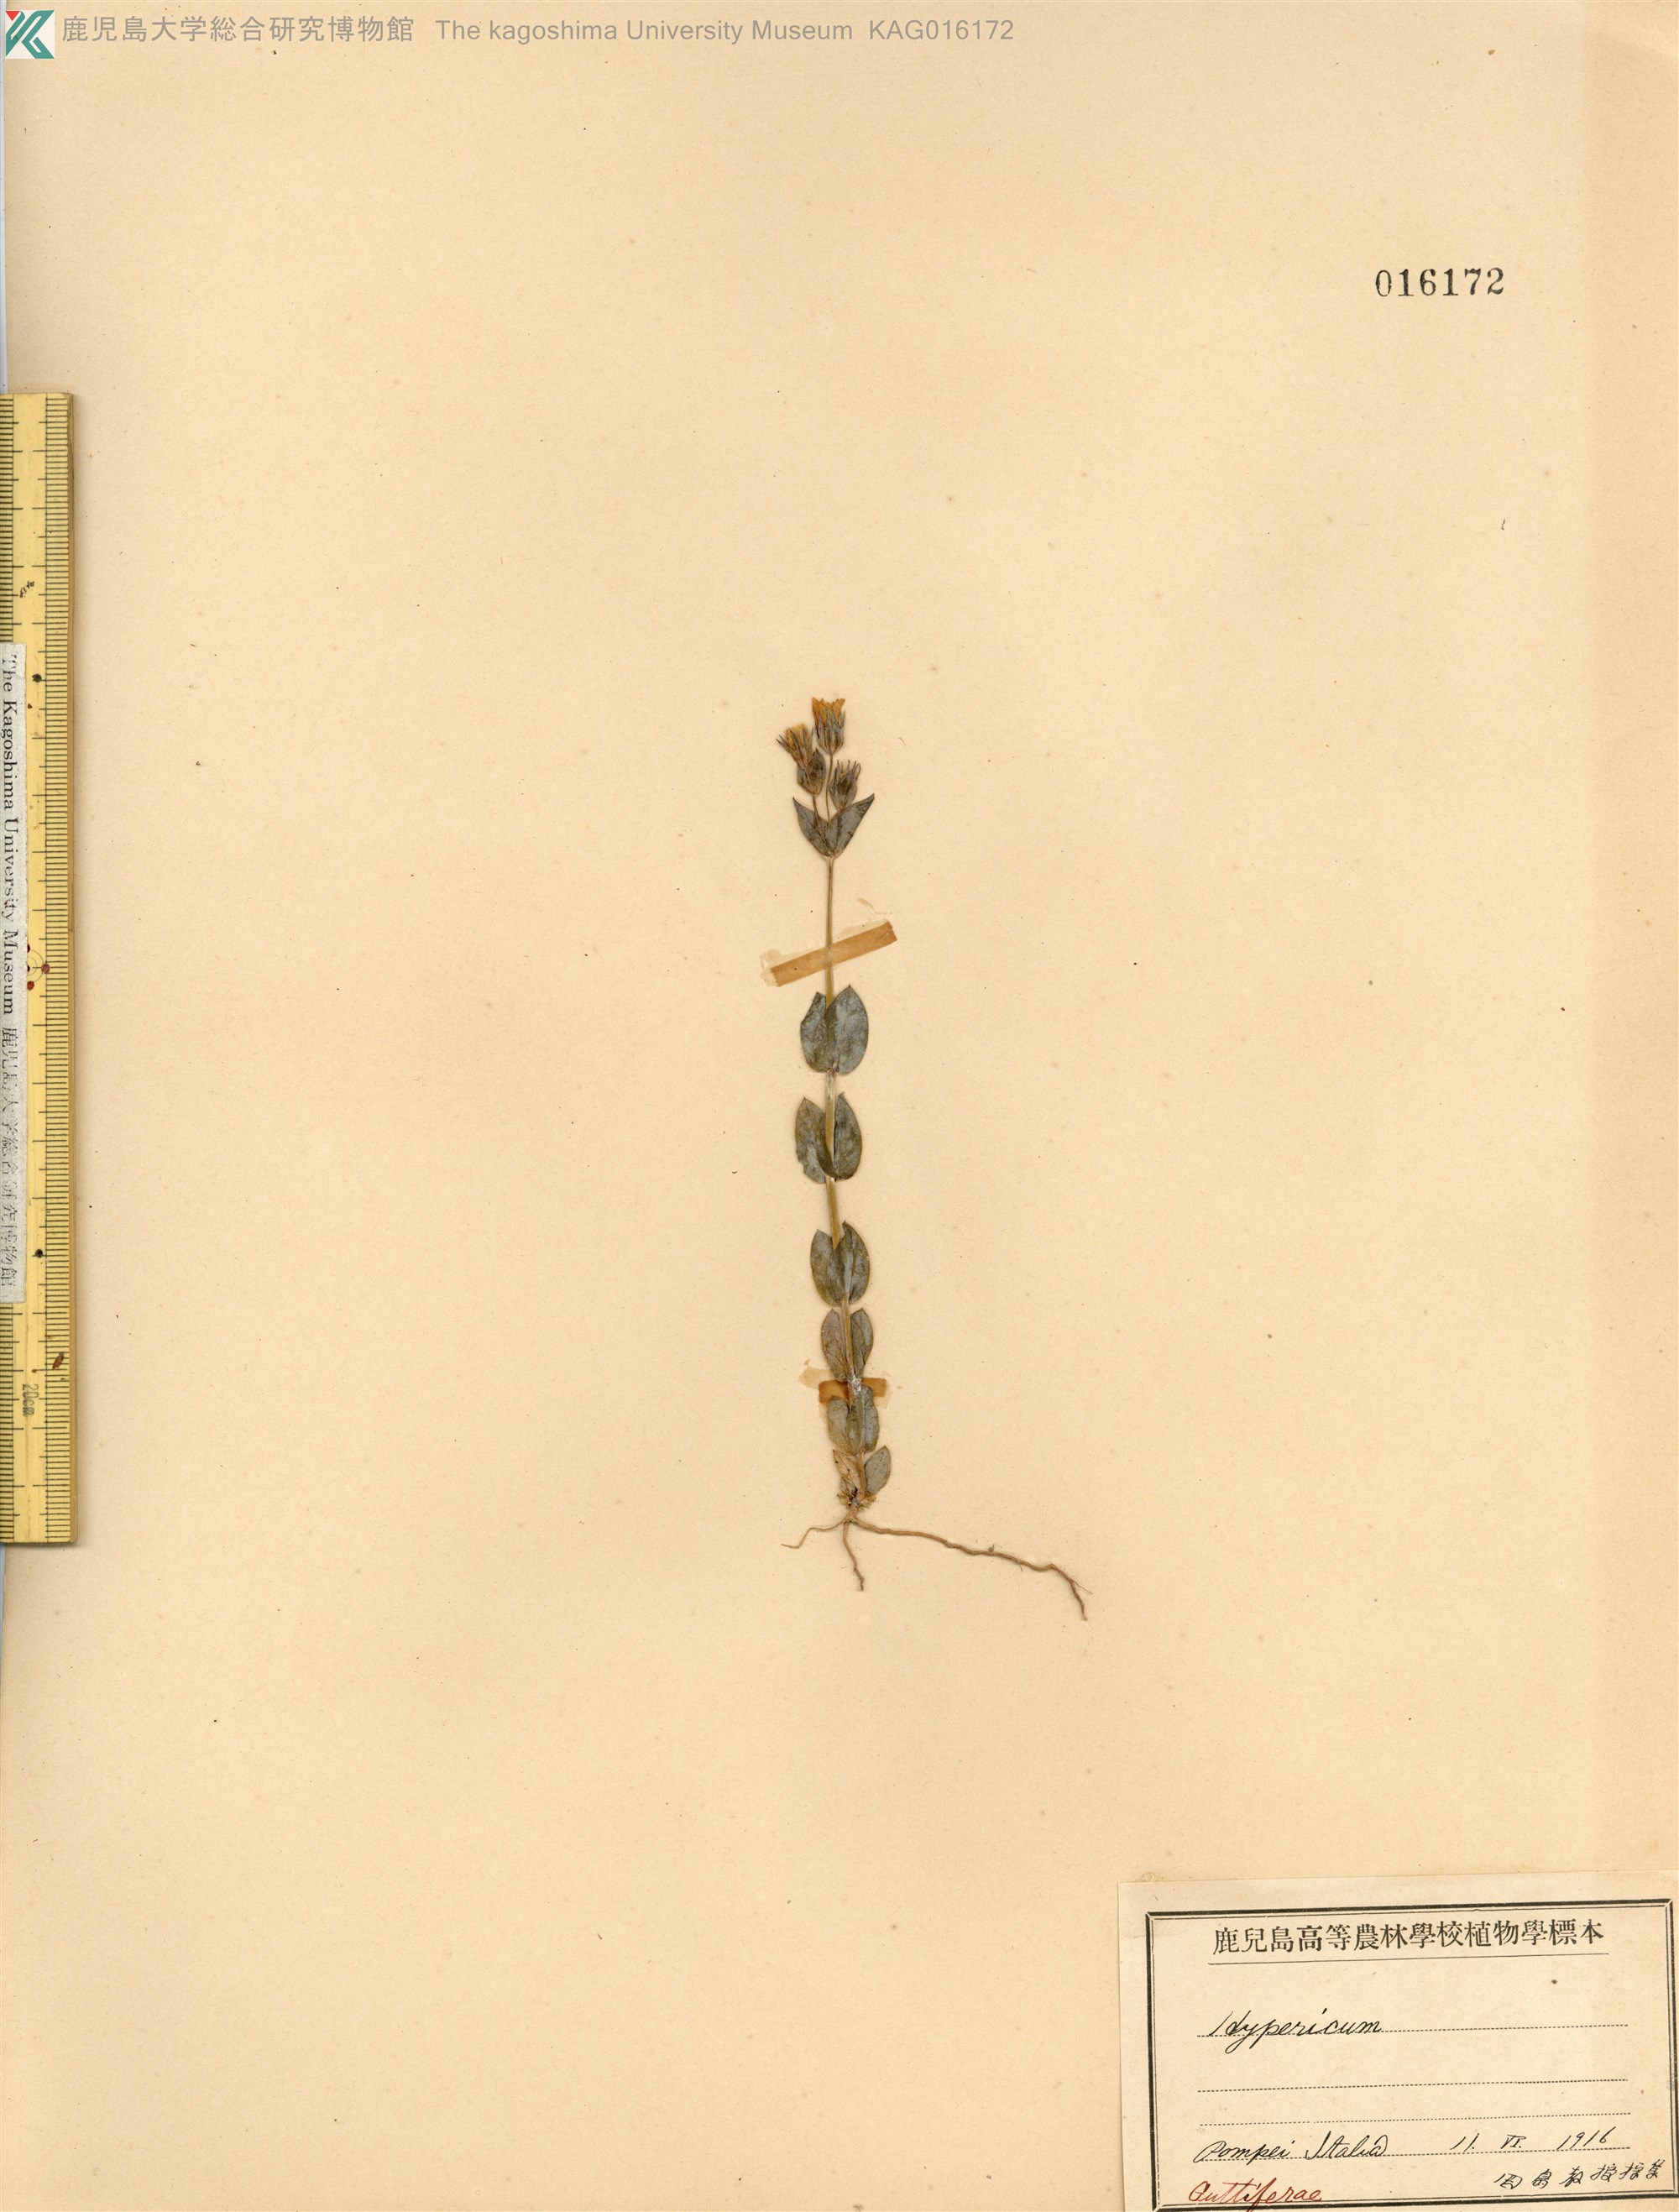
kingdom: Plantae
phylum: Tracheophyta
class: Magnoliopsida
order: Malpighiales
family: Hypericaceae
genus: Hypericum
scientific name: Hypericum
